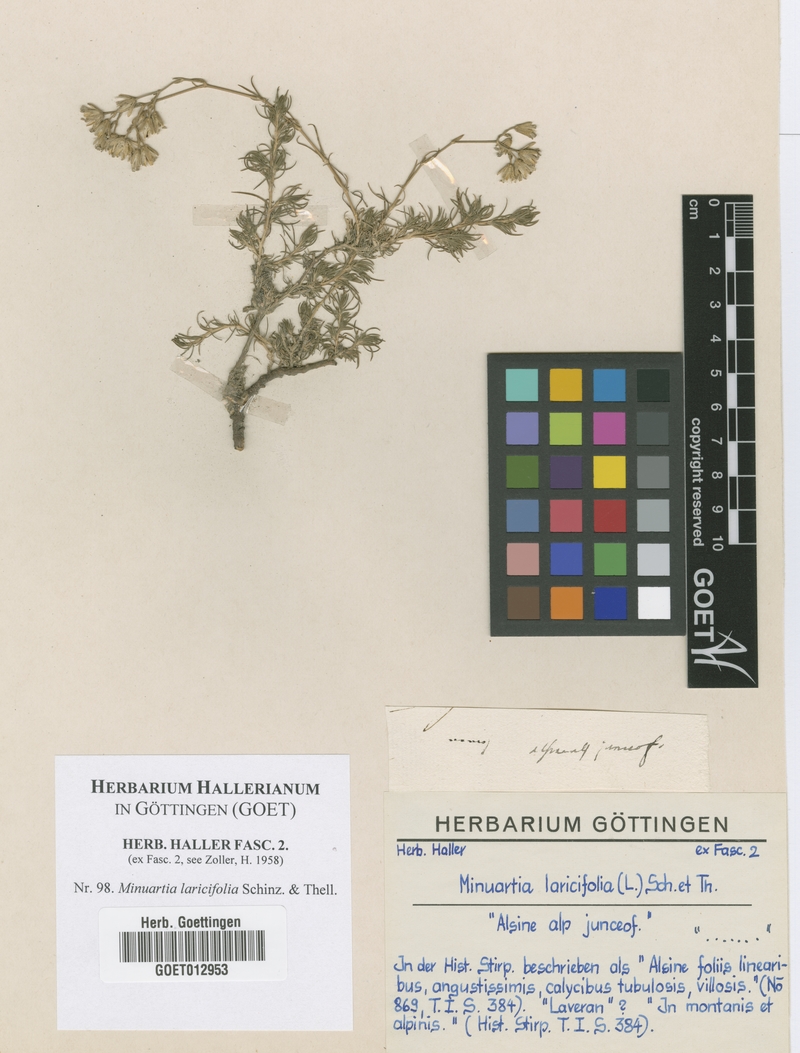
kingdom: Plantae
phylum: Tracheophyta
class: Magnoliopsida
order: Caryophyllales
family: Caryophyllaceae
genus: Cherleria
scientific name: Cherleria laricifolia
